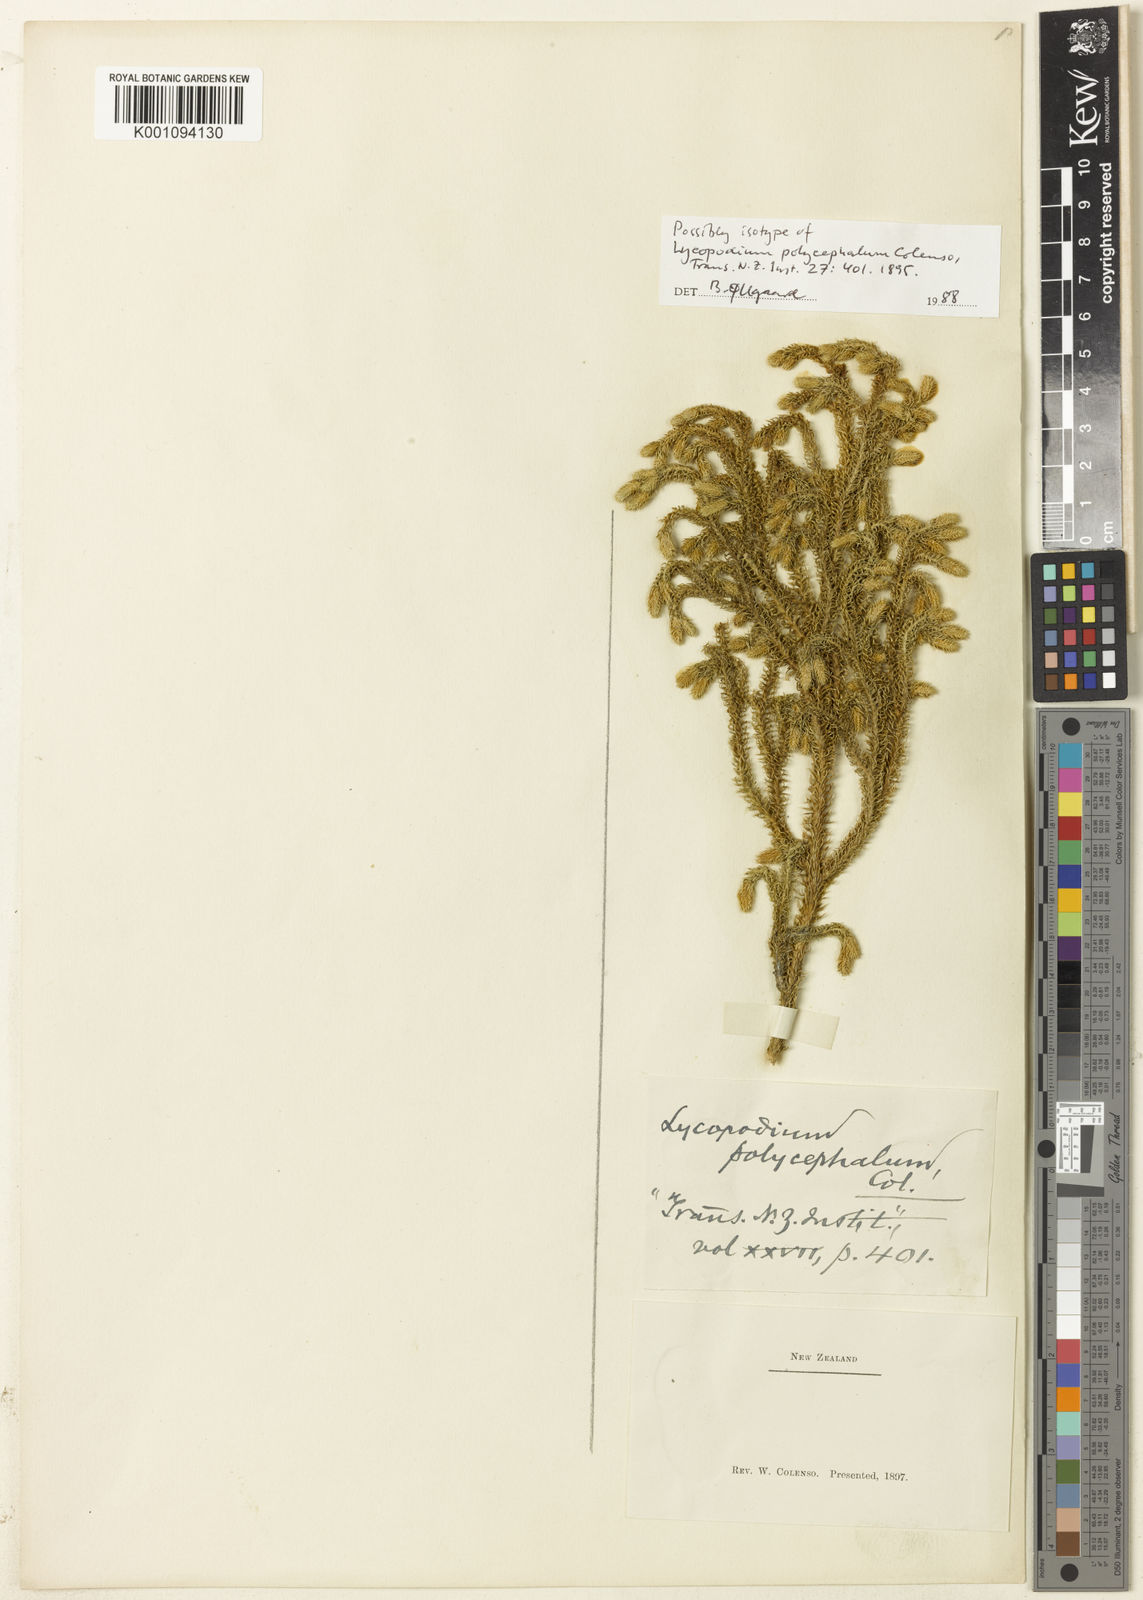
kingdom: Plantae
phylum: Tracheophyta
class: Lycopodiopsida
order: Lycopodiales
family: Lycopodiaceae
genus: Lycopodium
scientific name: Lycopodium
